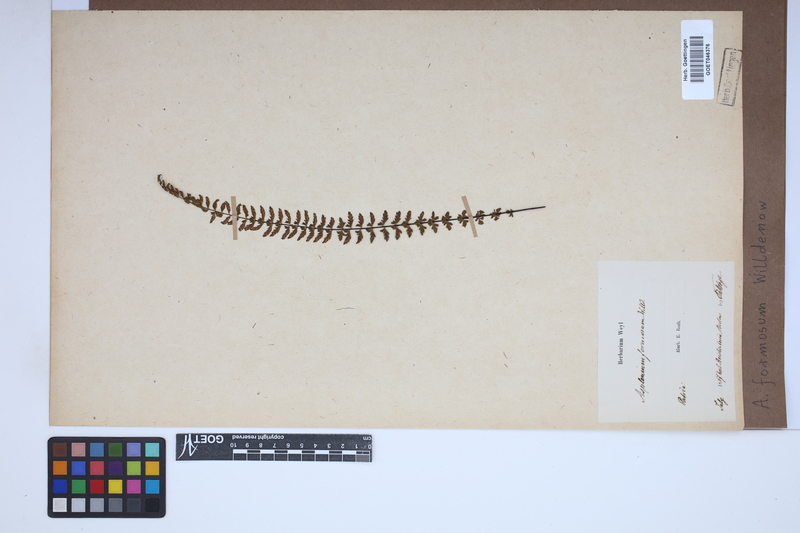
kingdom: Plantae
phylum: Tracheophyta
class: Polypodiopsida
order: Polypodiales
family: Aspleniaceae
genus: Asplenium
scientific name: Asplenium formosum
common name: Showy spleenwort
